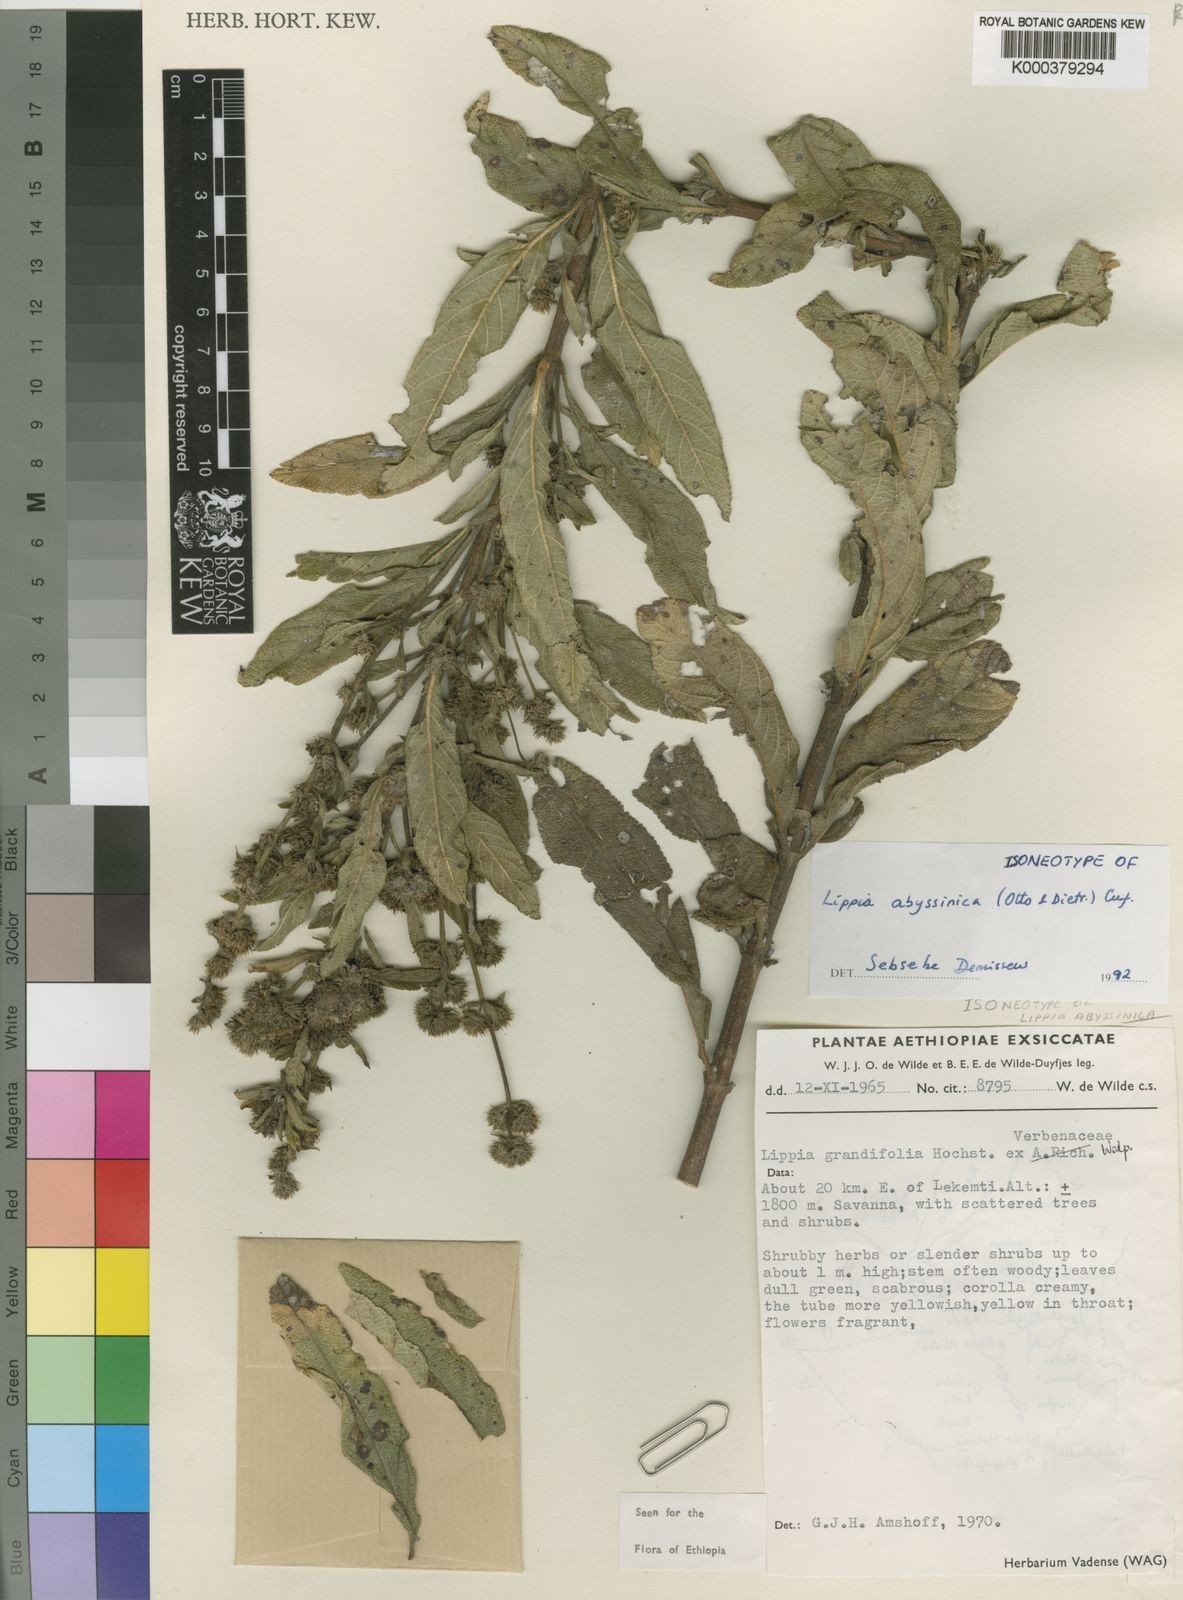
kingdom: Plantae
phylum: Tracheophyta
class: Magnoliopsida
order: Lamiales
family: Verbenaceae
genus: Lippia
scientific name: Lippia
